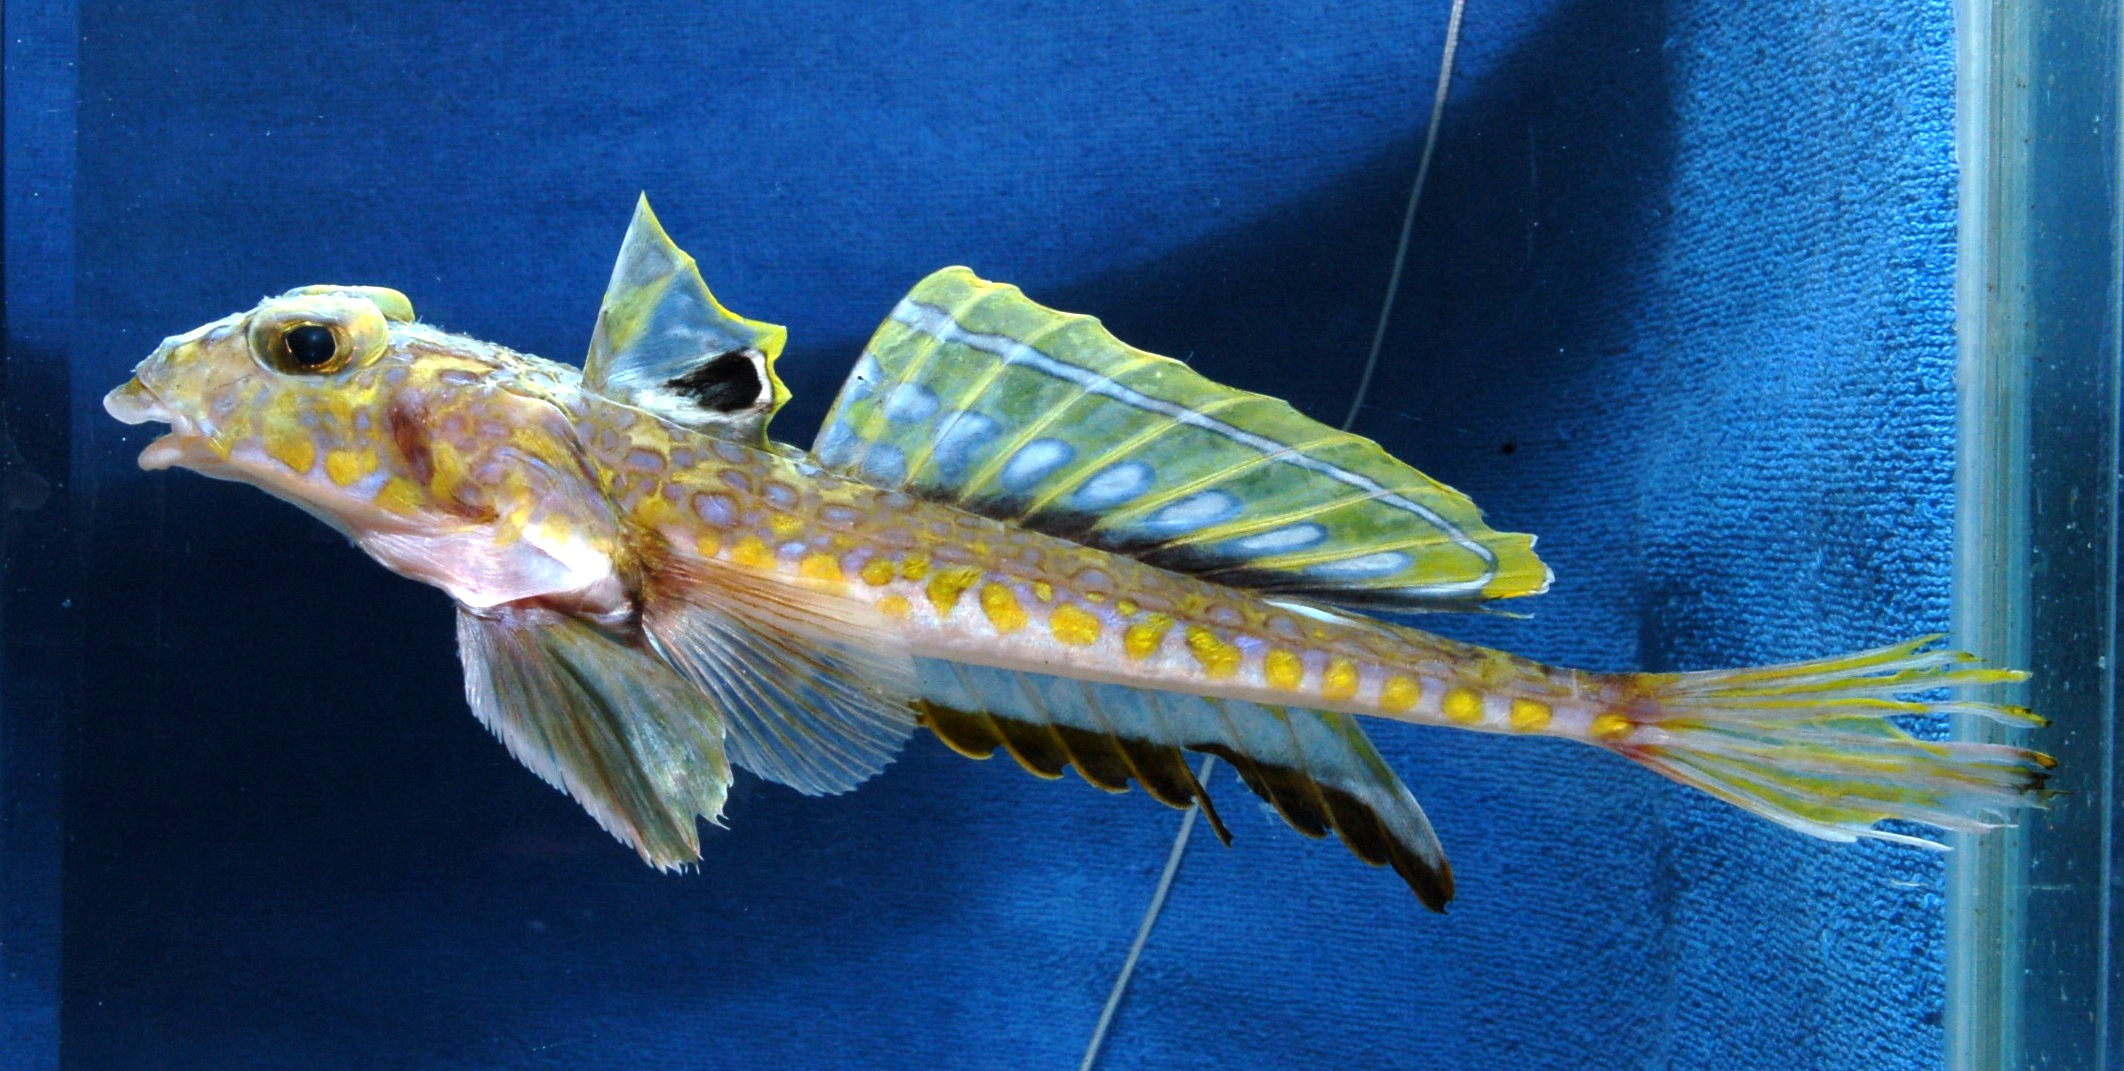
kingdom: Animalia
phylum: Chordata
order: Perciformes
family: Callionymidae
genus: Callionymus
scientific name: Callionymus regani
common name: Regan’s deepwater dragonet
